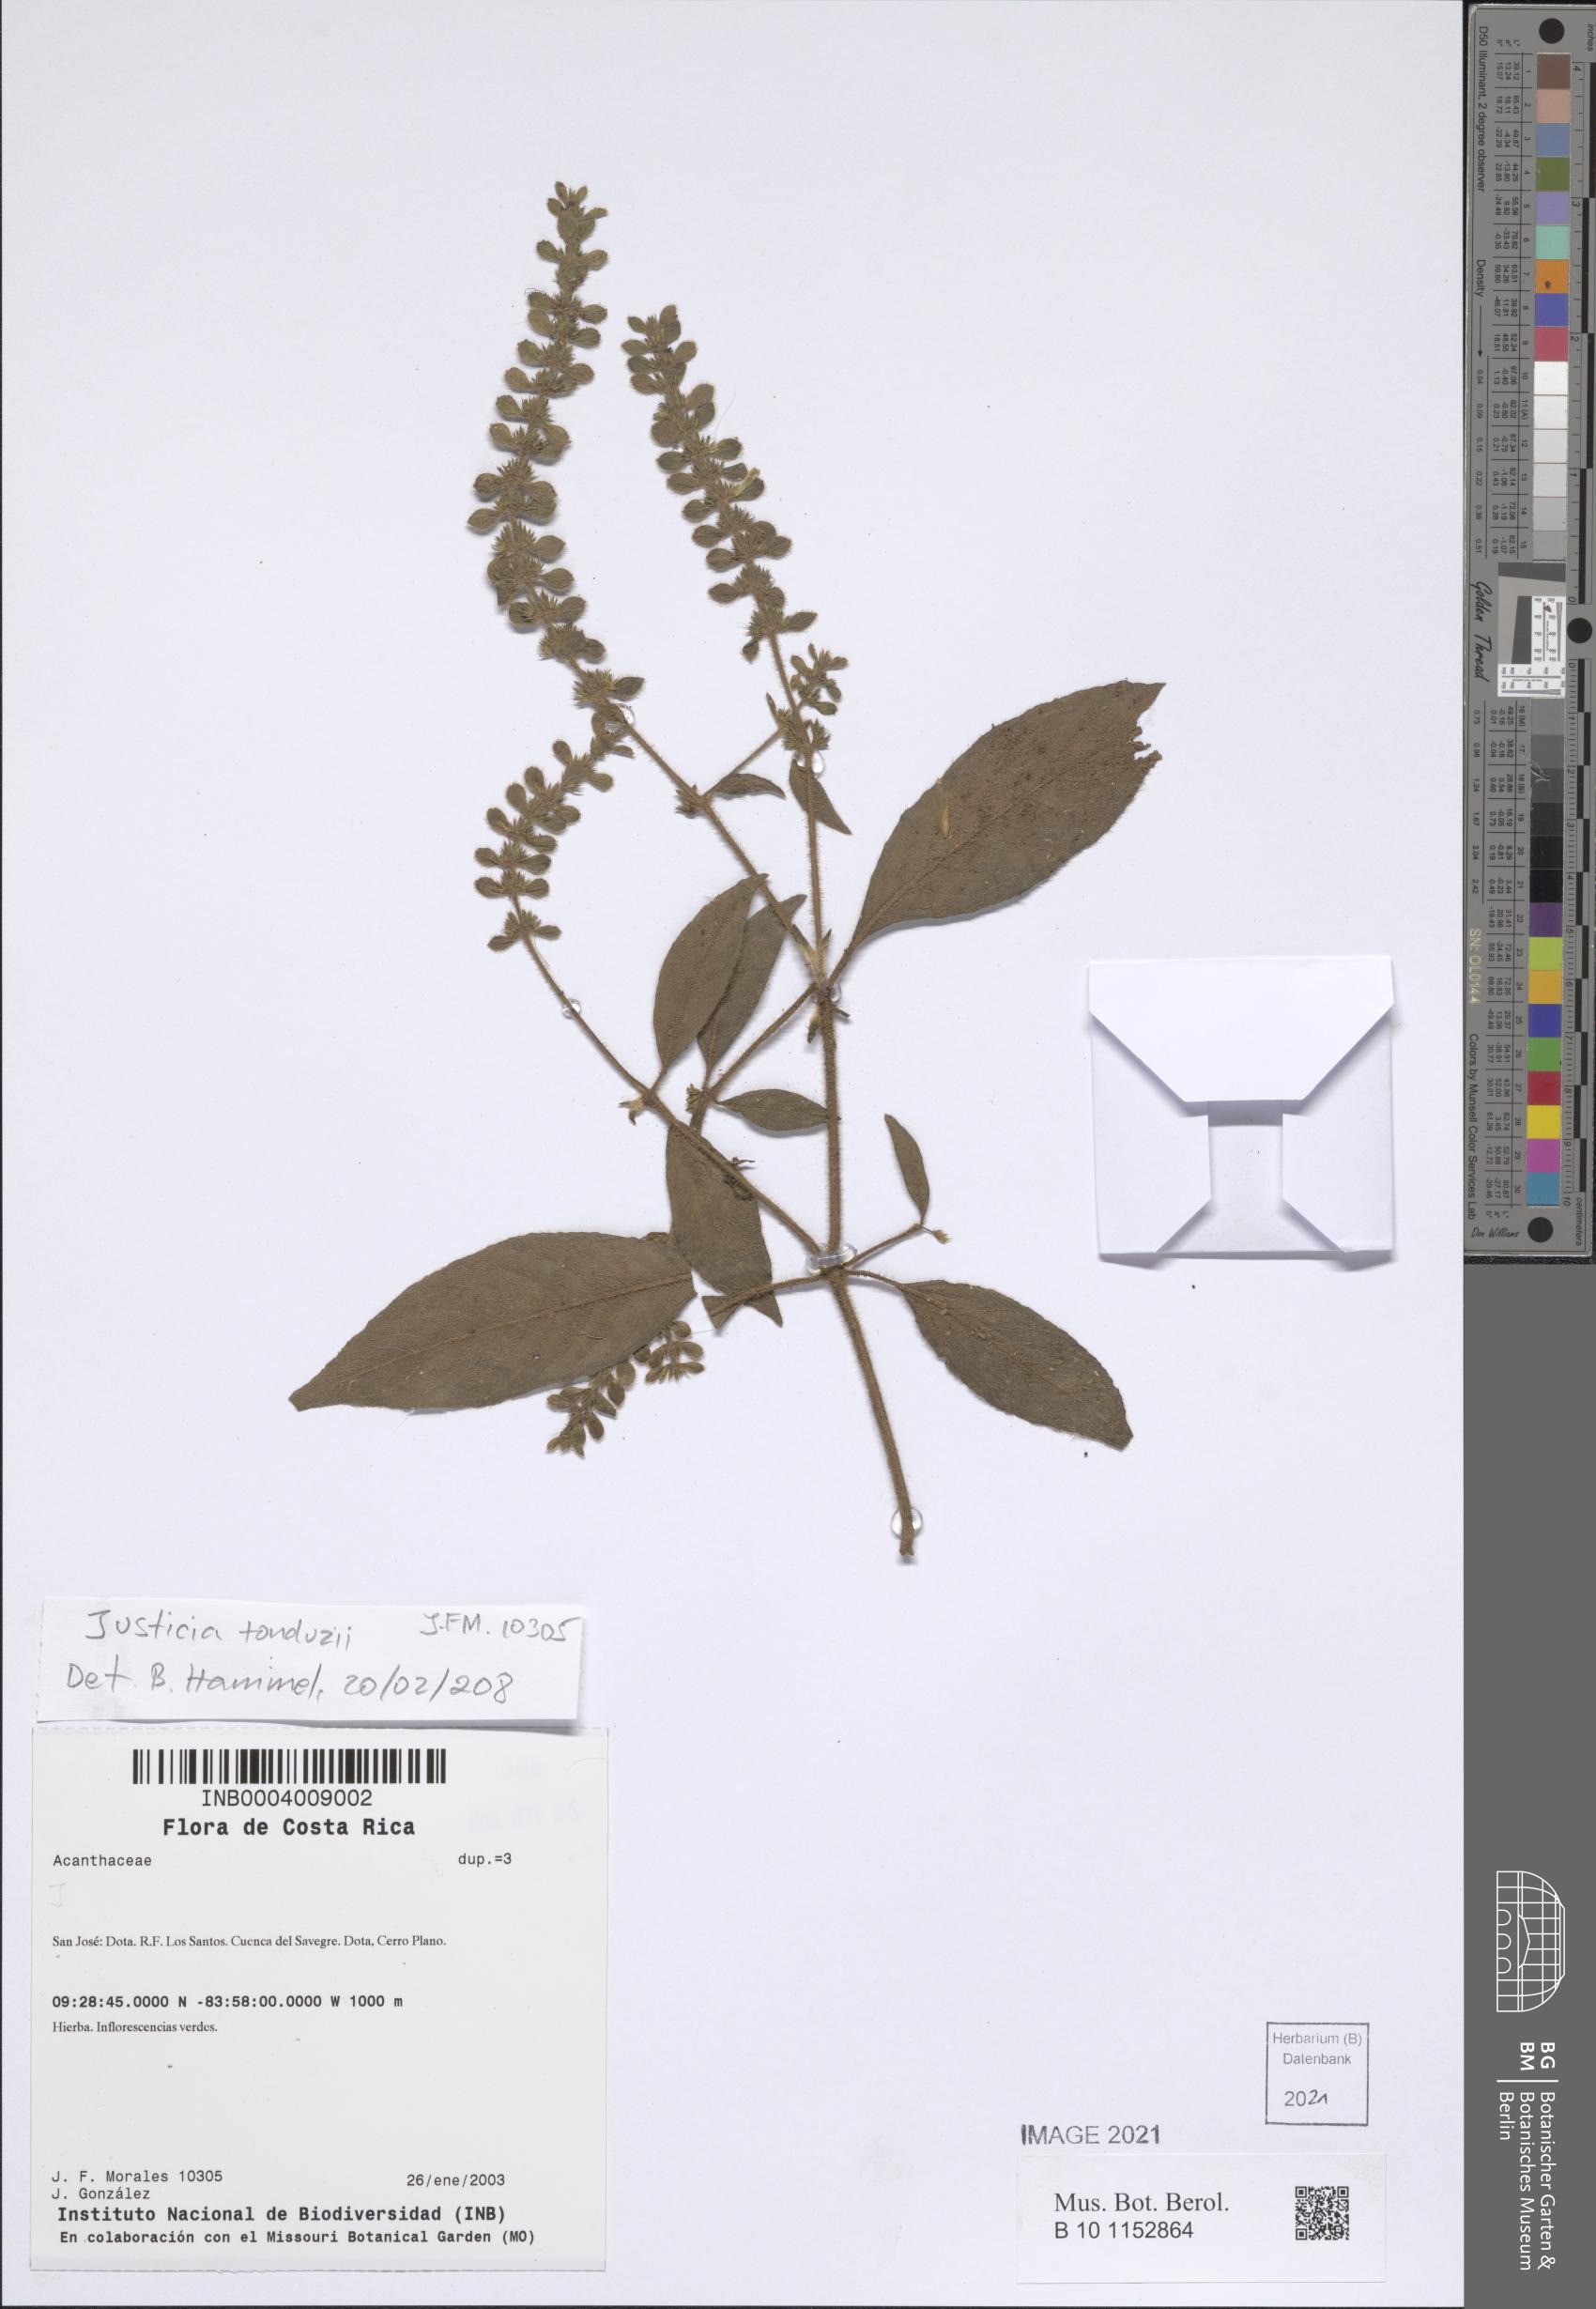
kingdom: Plantae
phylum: Tracheophyta
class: Magnoliopsida
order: Lamiales
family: Acanthaceae
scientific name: Acanthaceae
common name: Acanthaceae
